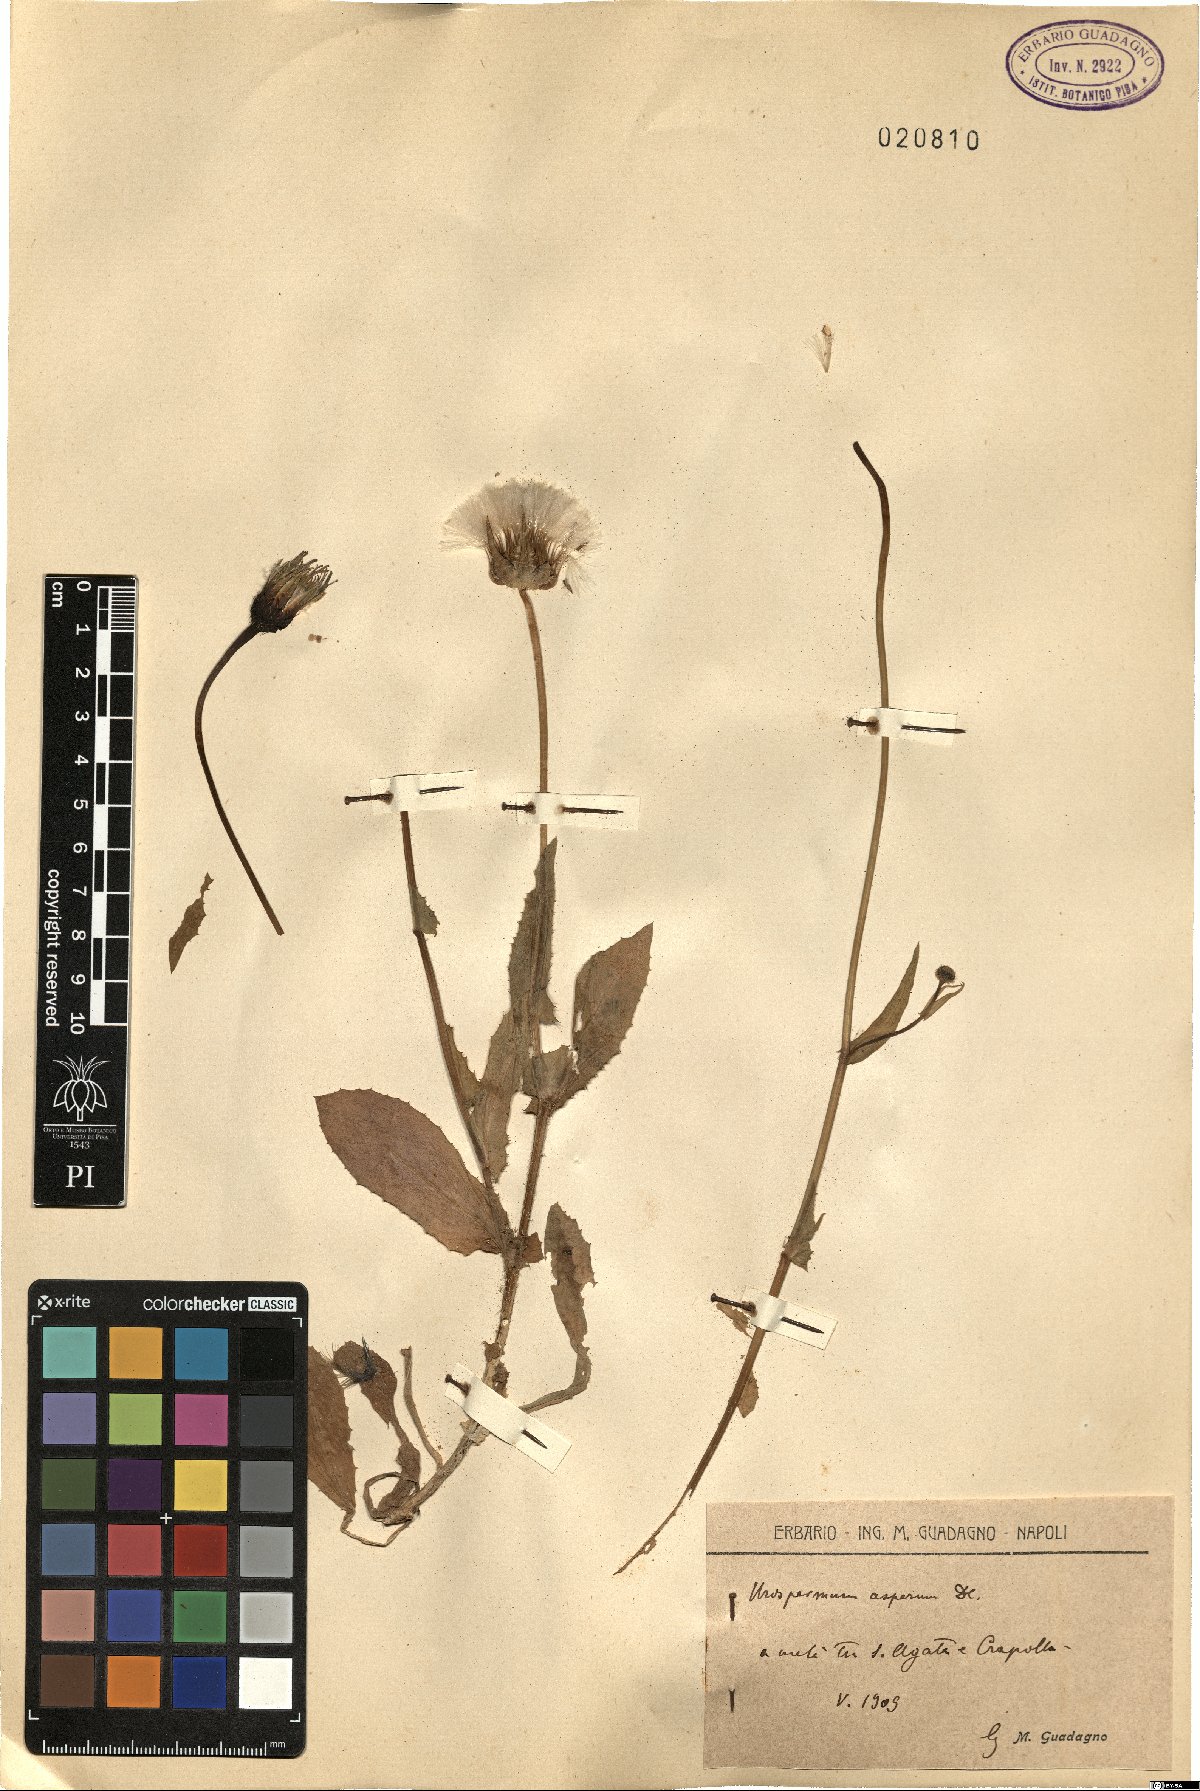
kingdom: Plantae
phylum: Tracheophyta
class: Magnoliopsida
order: Asterales
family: Asteraceae
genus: Urospermum
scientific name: Urospermum picroides
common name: False hawkbit
